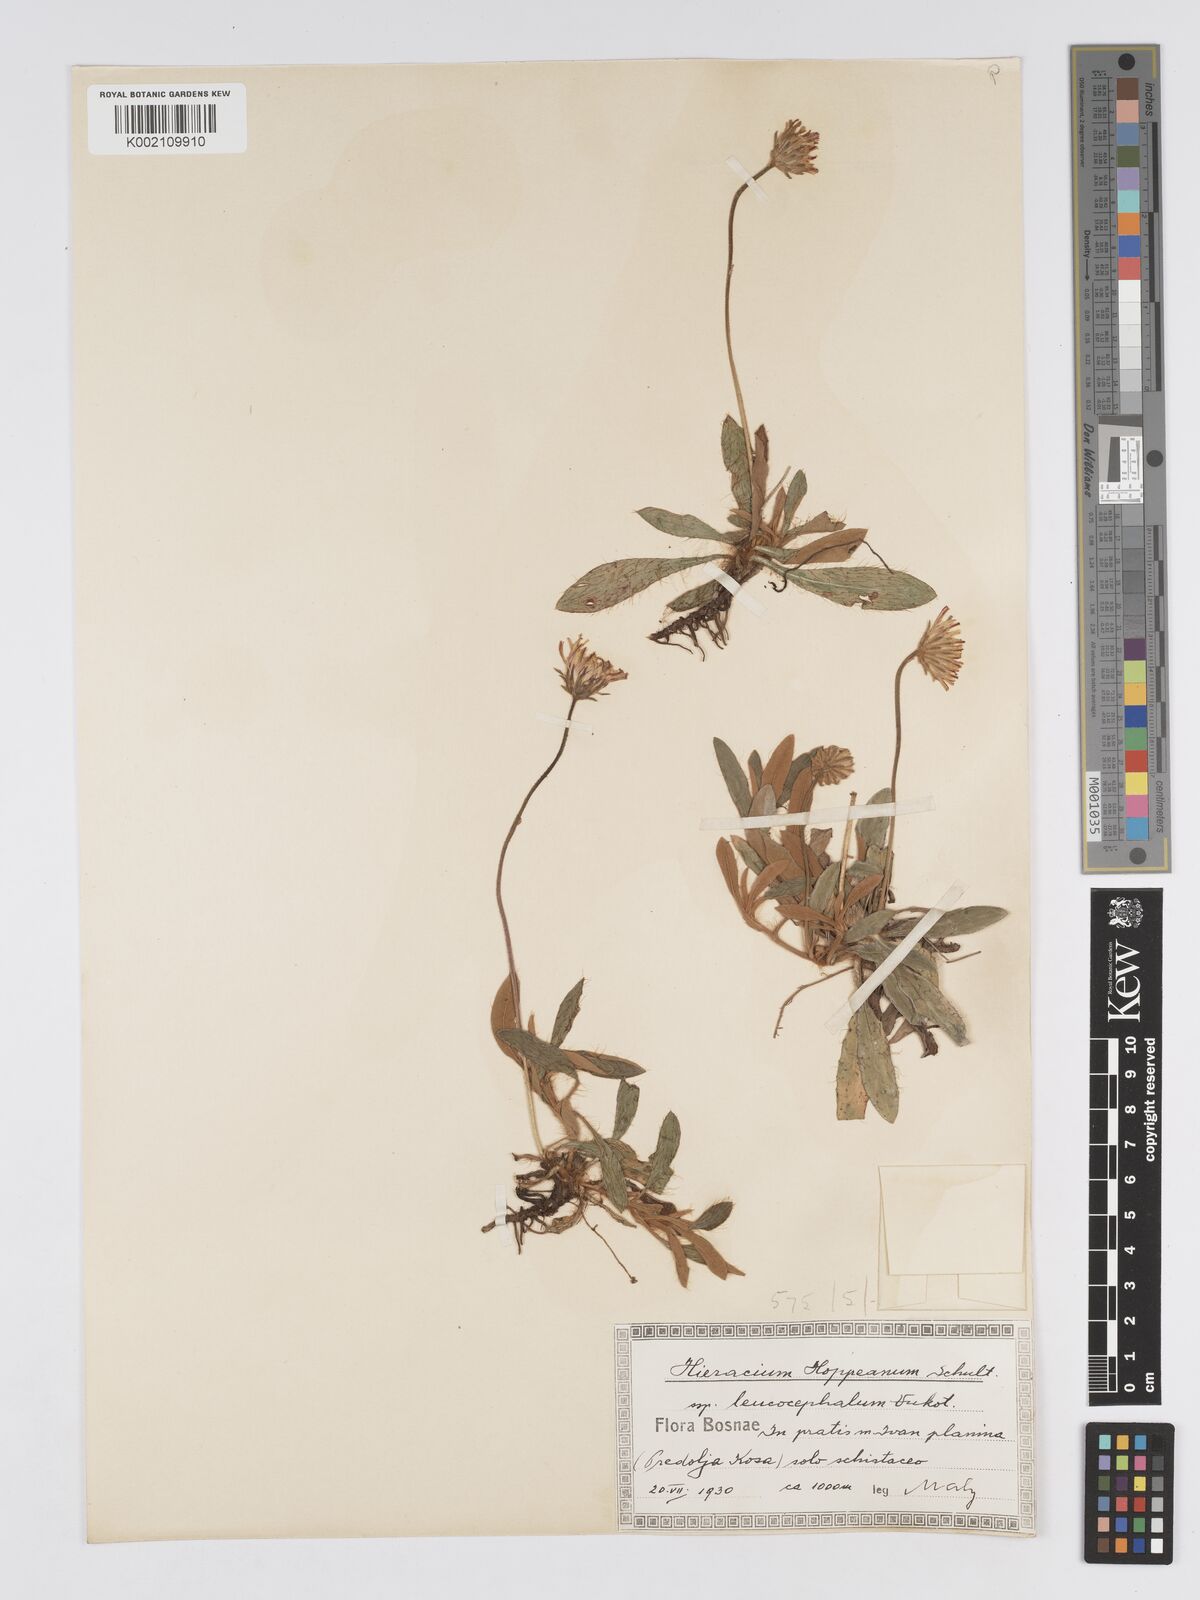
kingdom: Plantae
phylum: Tracheophyta
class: Magnoliopsida
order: Asterales
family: Asteraceae
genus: Pilosella
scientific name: Pilosella hoppeana
